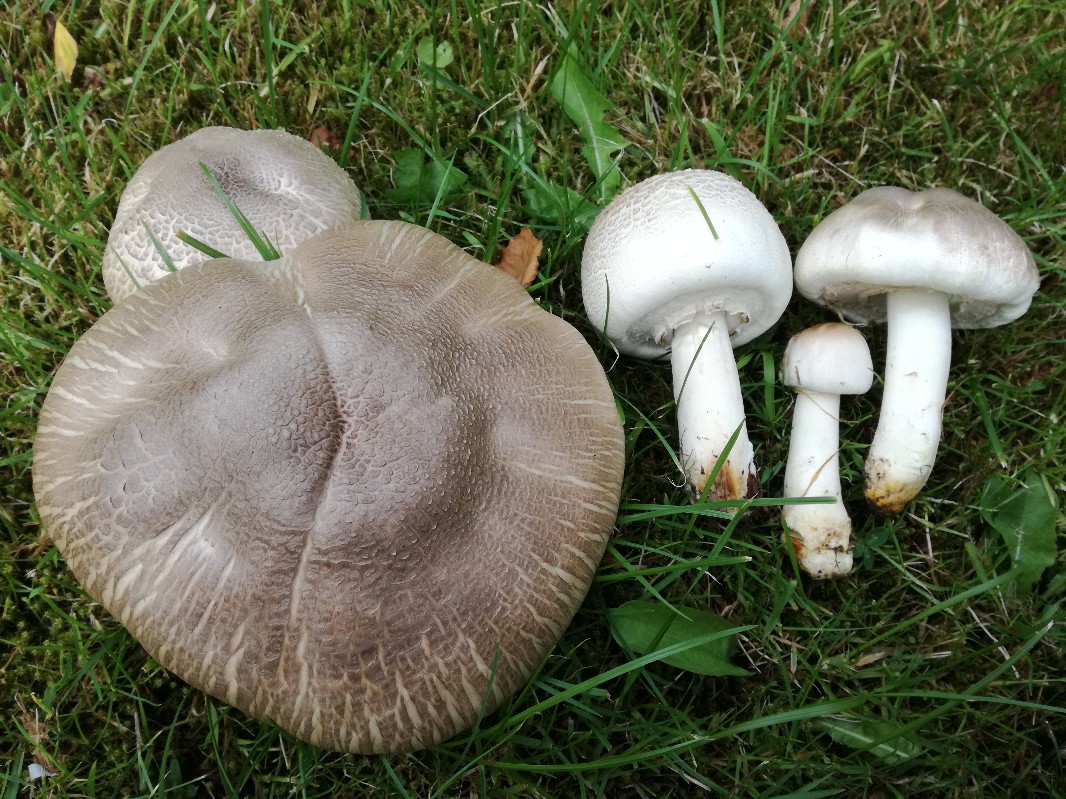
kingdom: Fungi
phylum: Basidiomycota
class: Agaricomycetes
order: Agaricales
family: Agaricaceae
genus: Agaricus
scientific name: Agaricus xanthodermus
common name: karbol-champignon
